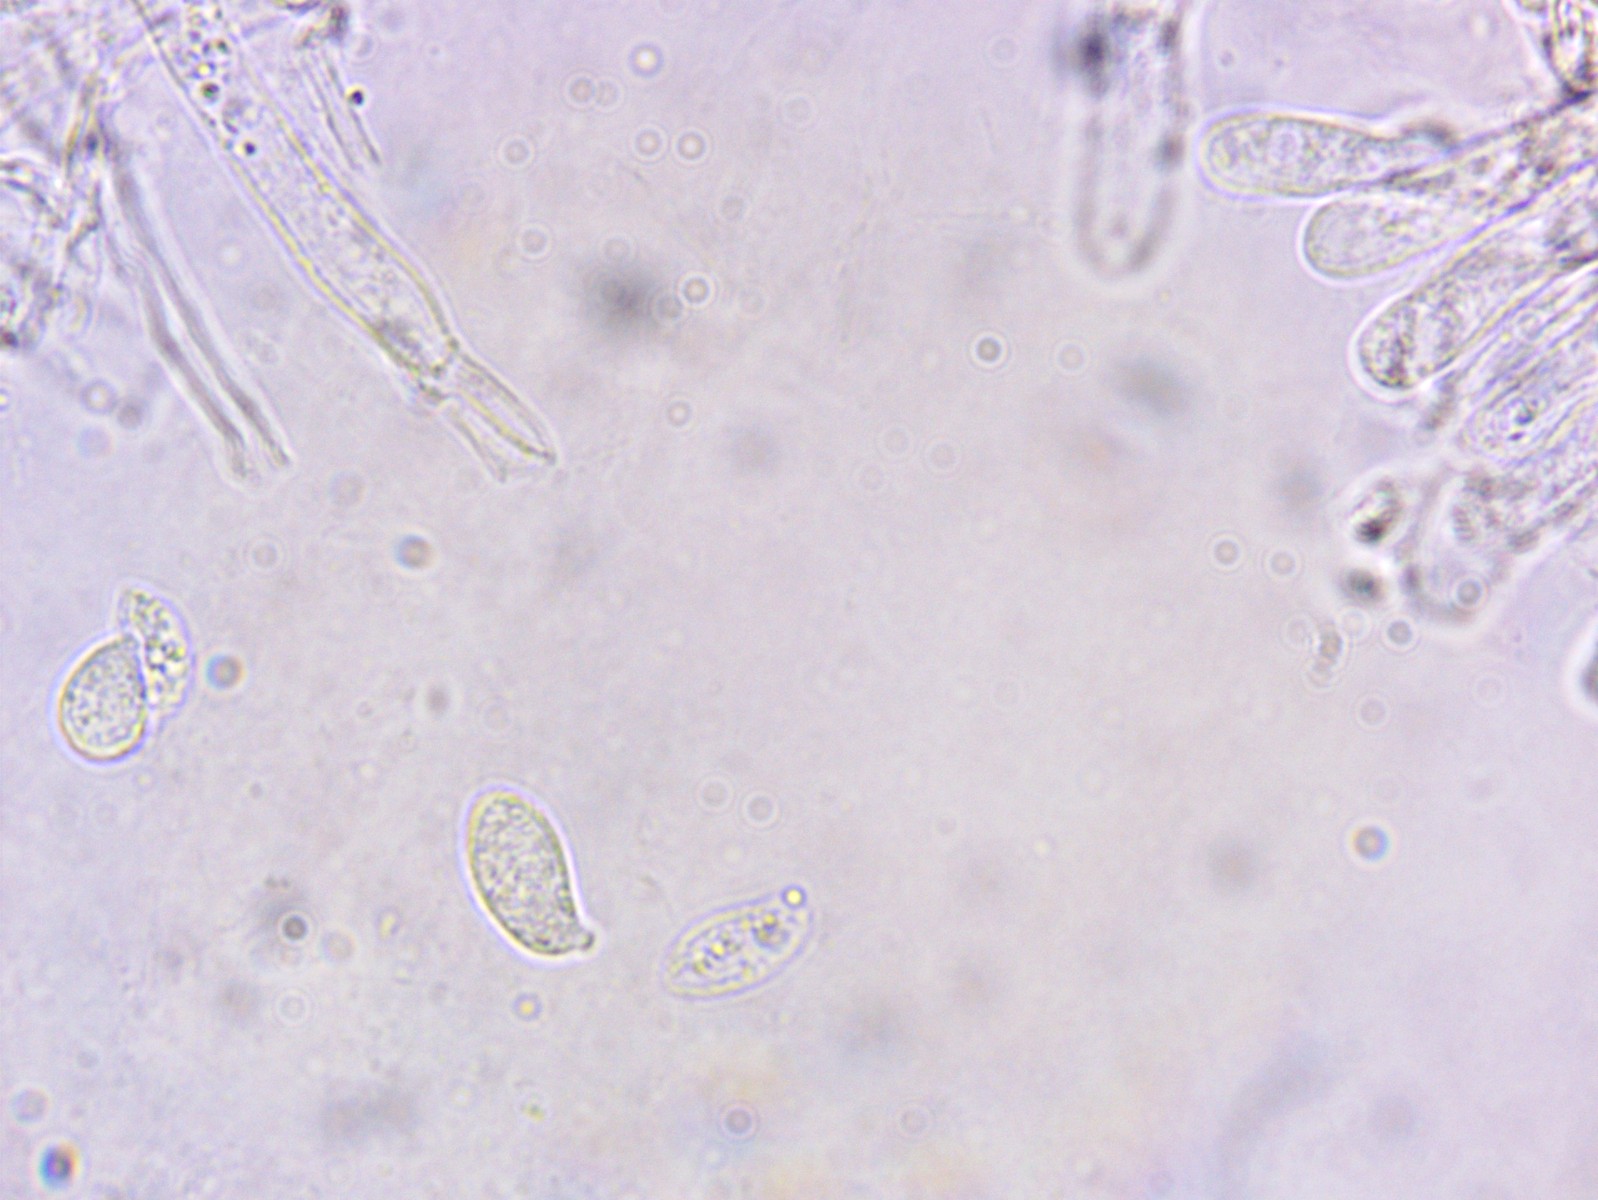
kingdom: Fungi
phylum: Basidiomycota
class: Agaricomycetes
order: Agaricales
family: Hygrophoraceae
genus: Arrhenia
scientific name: Arrhenia obscurata
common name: hede-fontænehat
